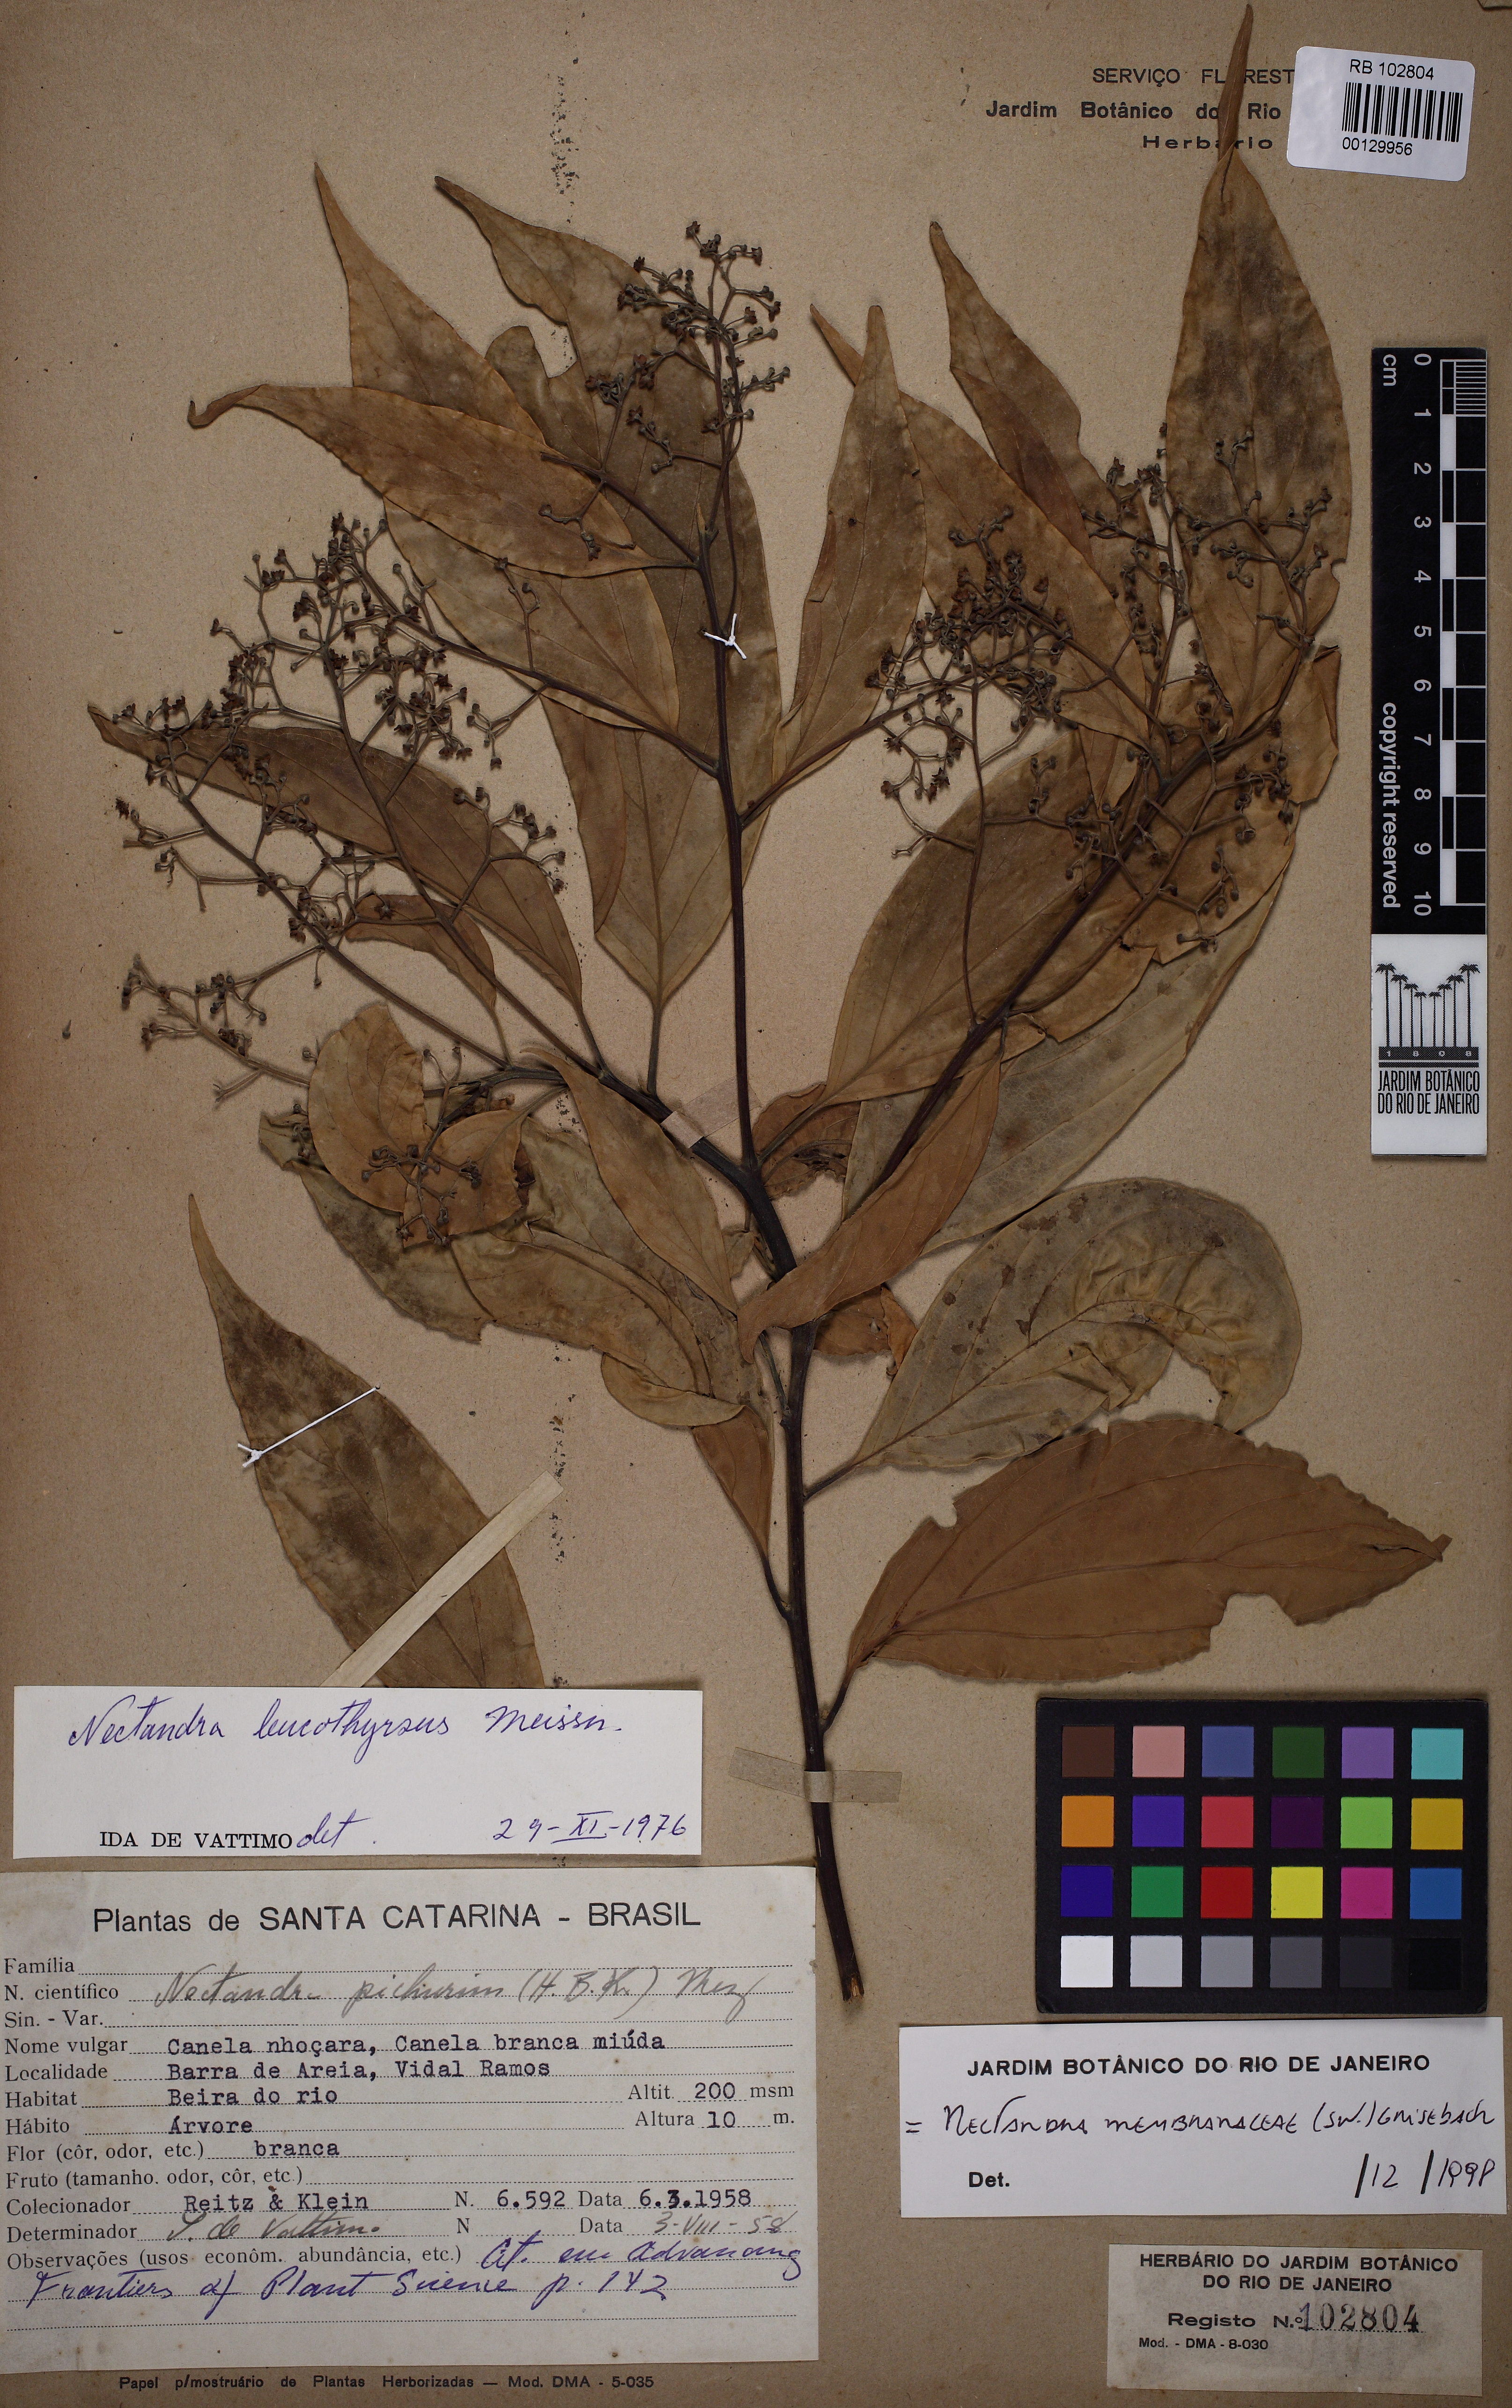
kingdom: Plantae
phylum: Tracheophyta
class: Magnoliopsida
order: Laurales
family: Lauraceae
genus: Nectandra
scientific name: Nectandra membranacea
